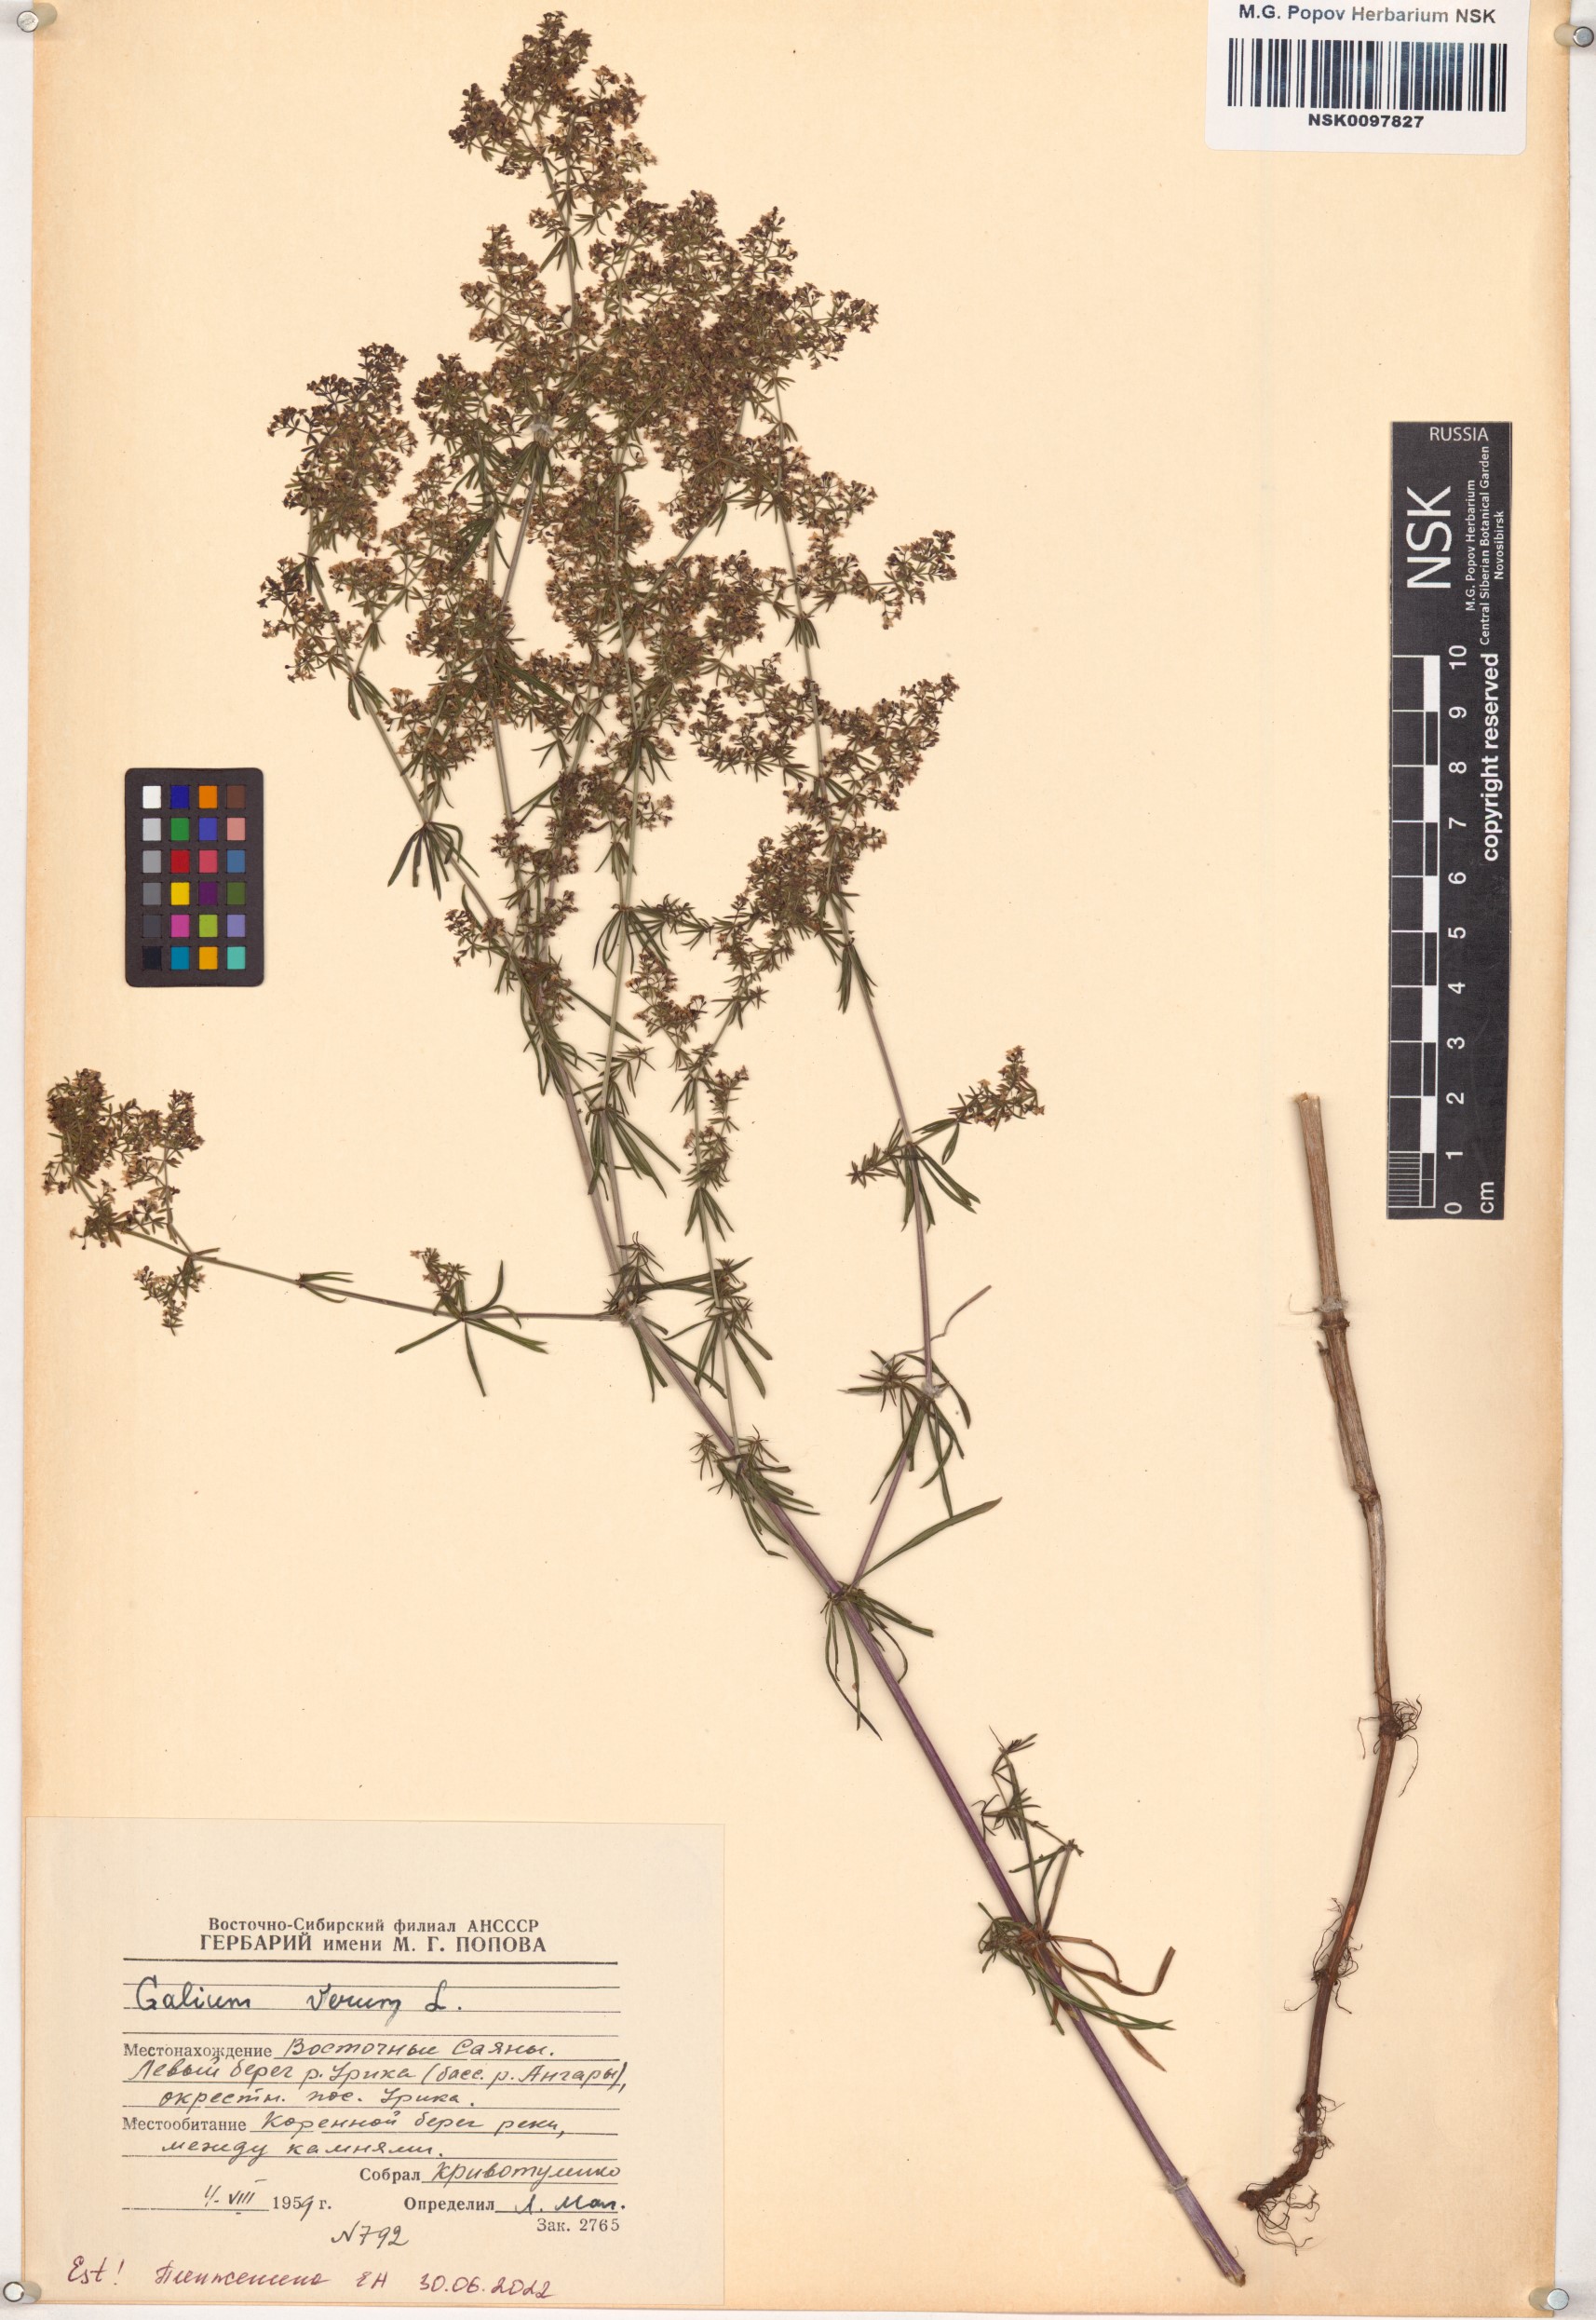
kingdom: Plantae
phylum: Tracheophyta
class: Magnoliopsida
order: Gentianales
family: Rubiaceae
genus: Galium
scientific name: Galium verum
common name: Lady's bedstraw
